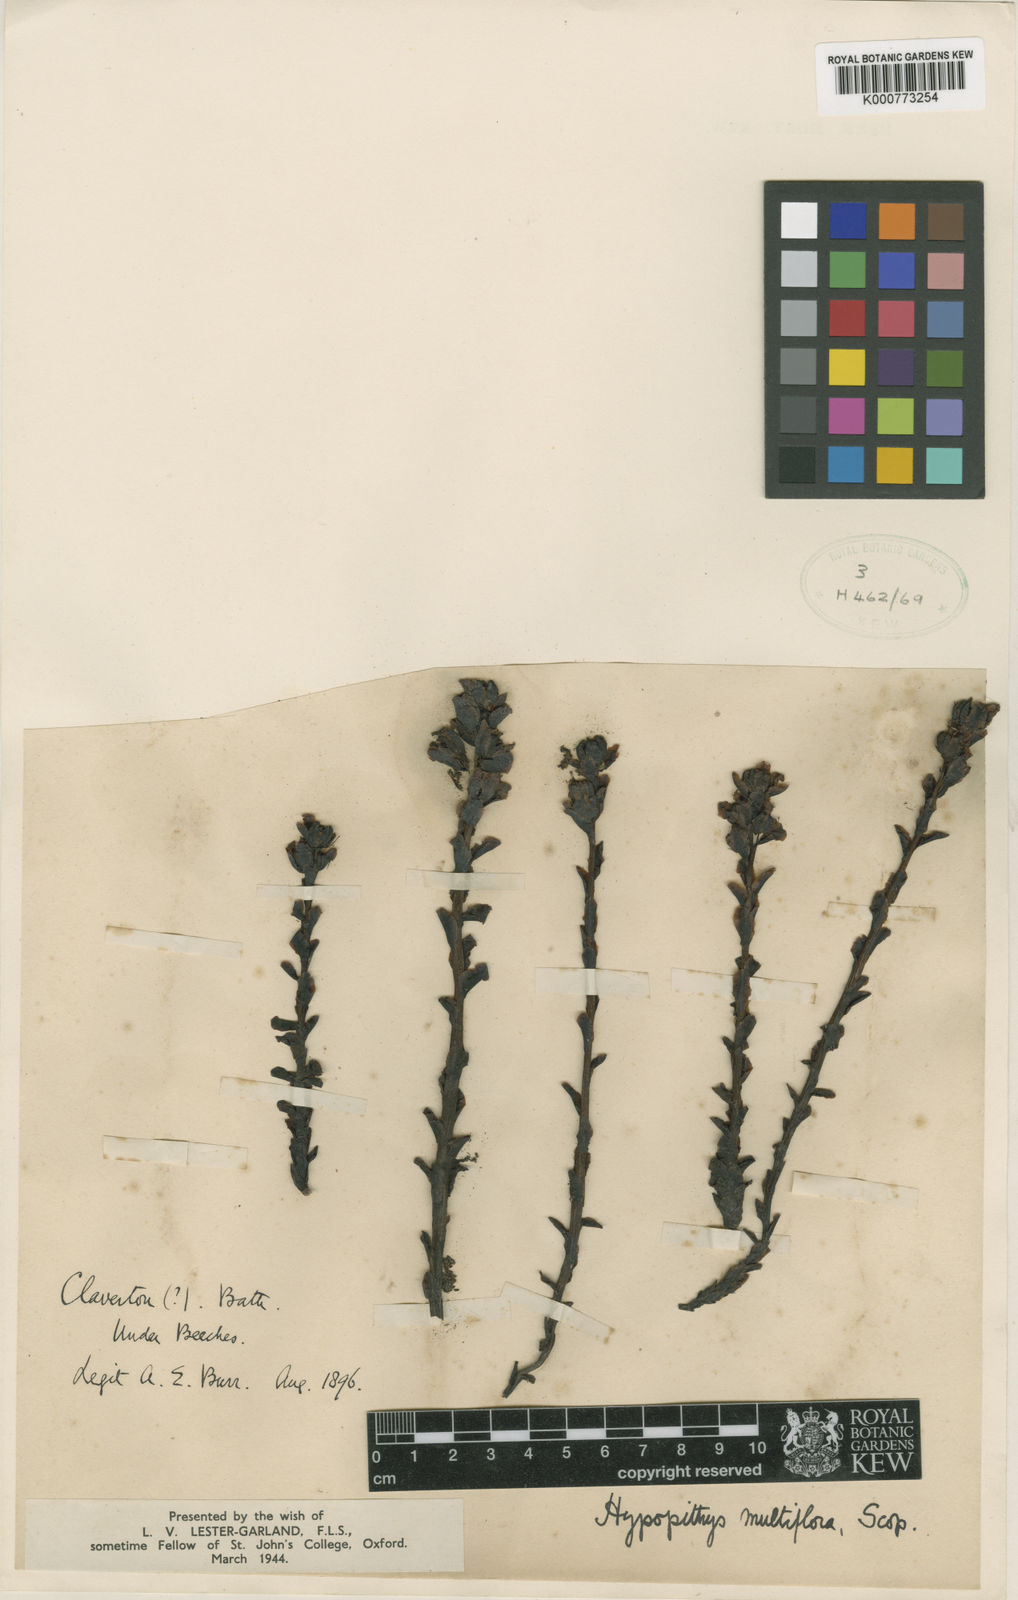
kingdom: Plantae
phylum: Tracheophyta
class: Magnoliopsida
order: Ericales
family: Ericaceae
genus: Monotropa
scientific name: Monotropa
